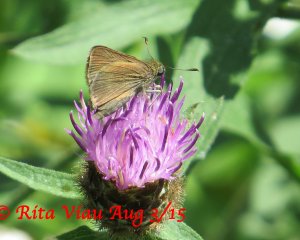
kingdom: Animalia
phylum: Arthropoda
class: Insecta
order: Lepidoptera
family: Hesperiidae
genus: Euphyes
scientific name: Euphyes vestris
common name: Dun Skipper
